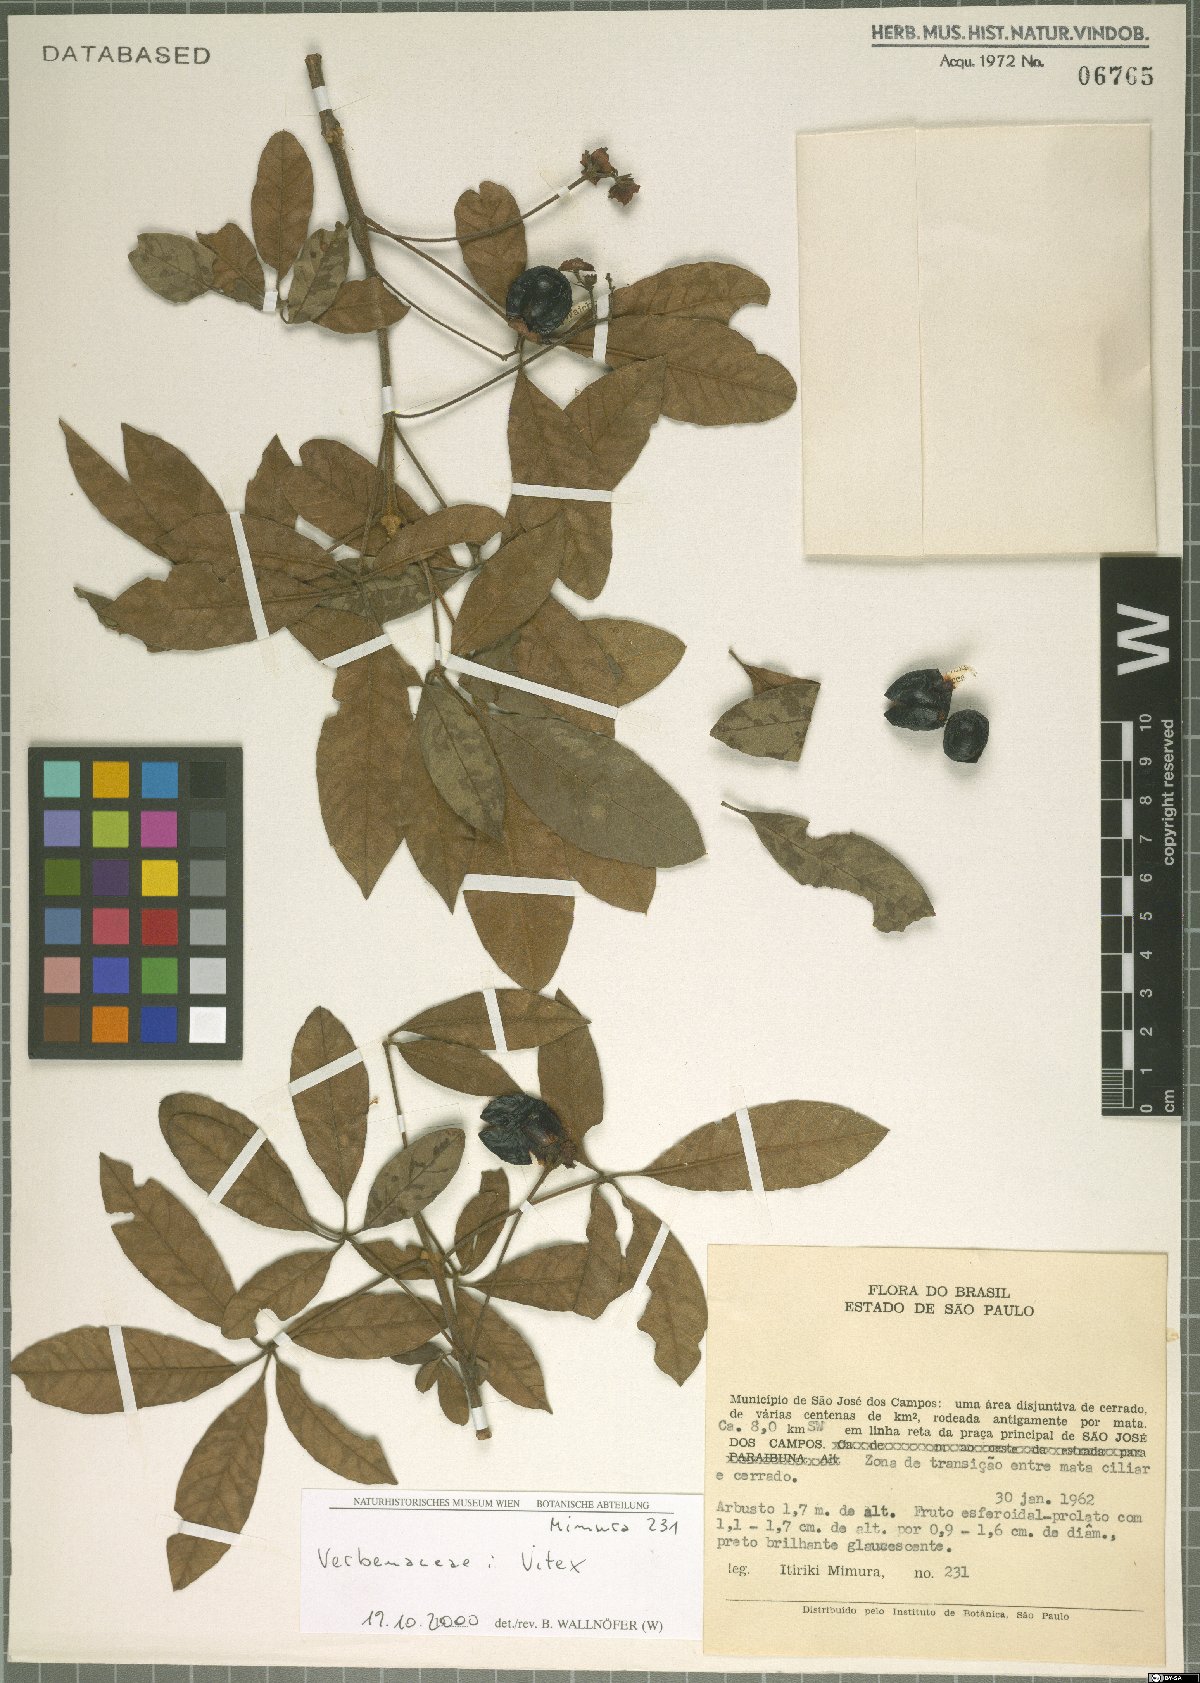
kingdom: Plantae
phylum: Tracheophyta
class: Magnoliopsida
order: Lamiales
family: Lamiaceae
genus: Vitex
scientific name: Vitex
